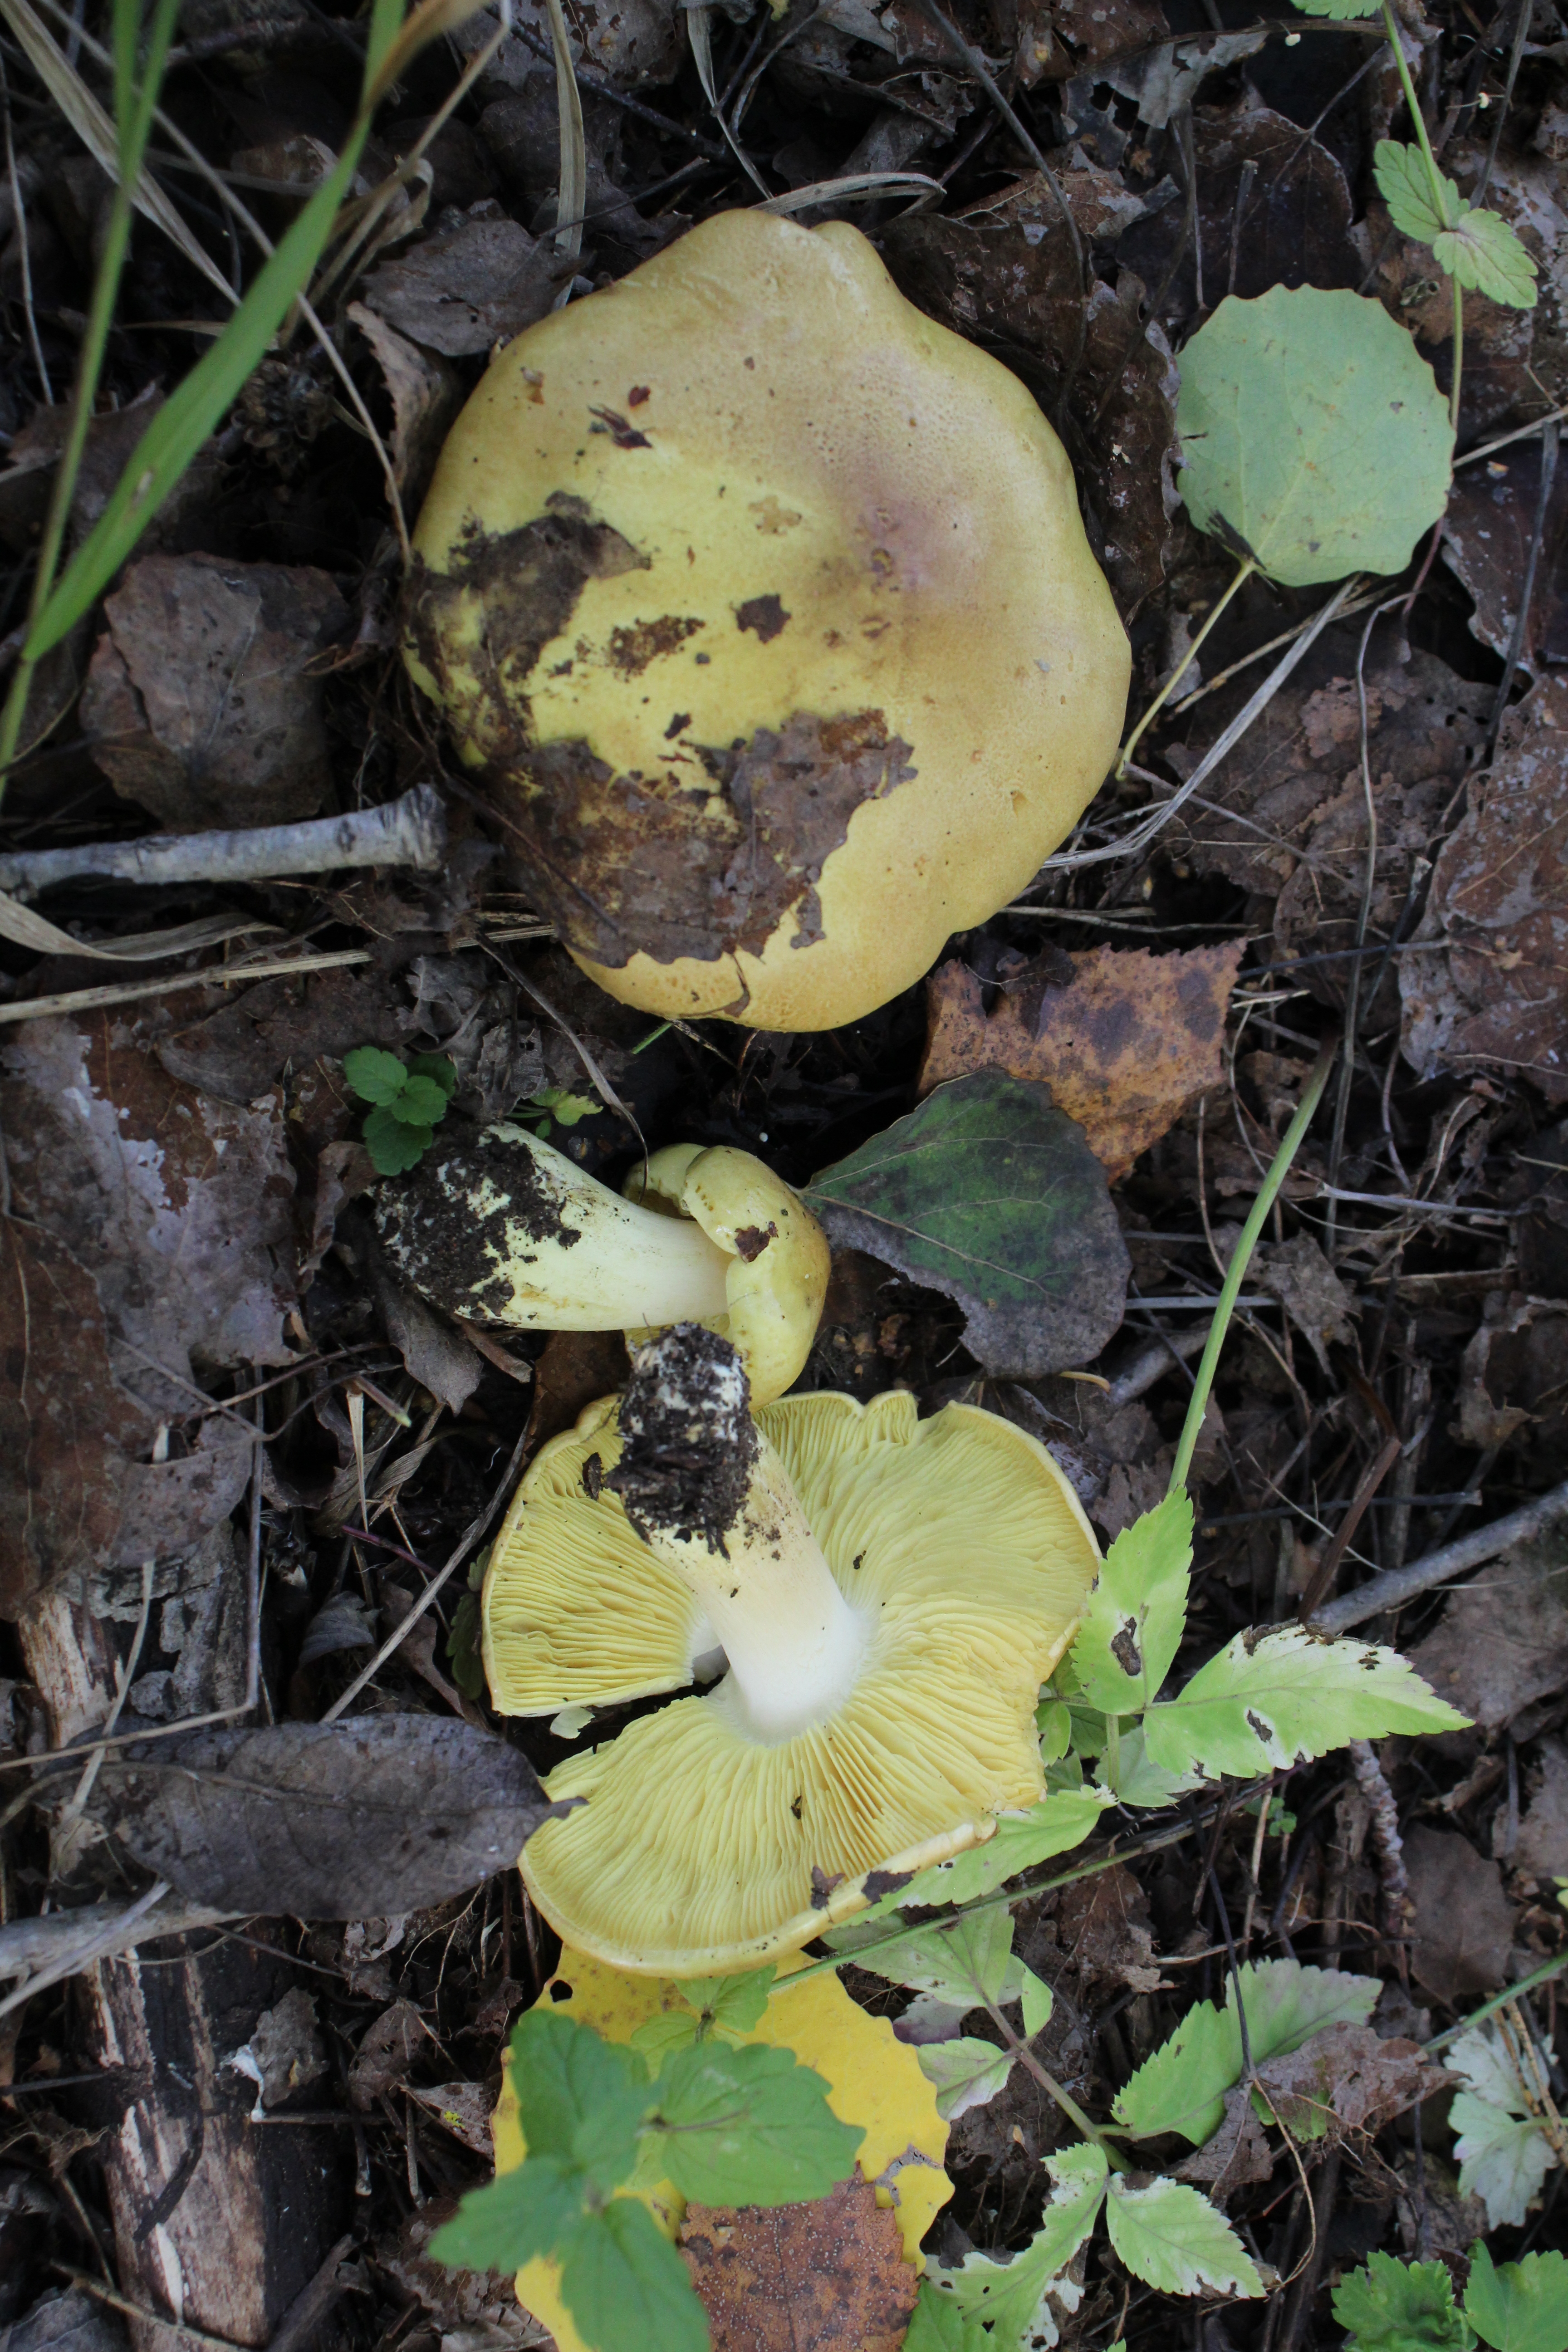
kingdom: Fungi
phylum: Basidiomycota
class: Agaricomycetes
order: Agaricales
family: Tricholomataceae
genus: Tricholoma
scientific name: Tricholoma frondosae
